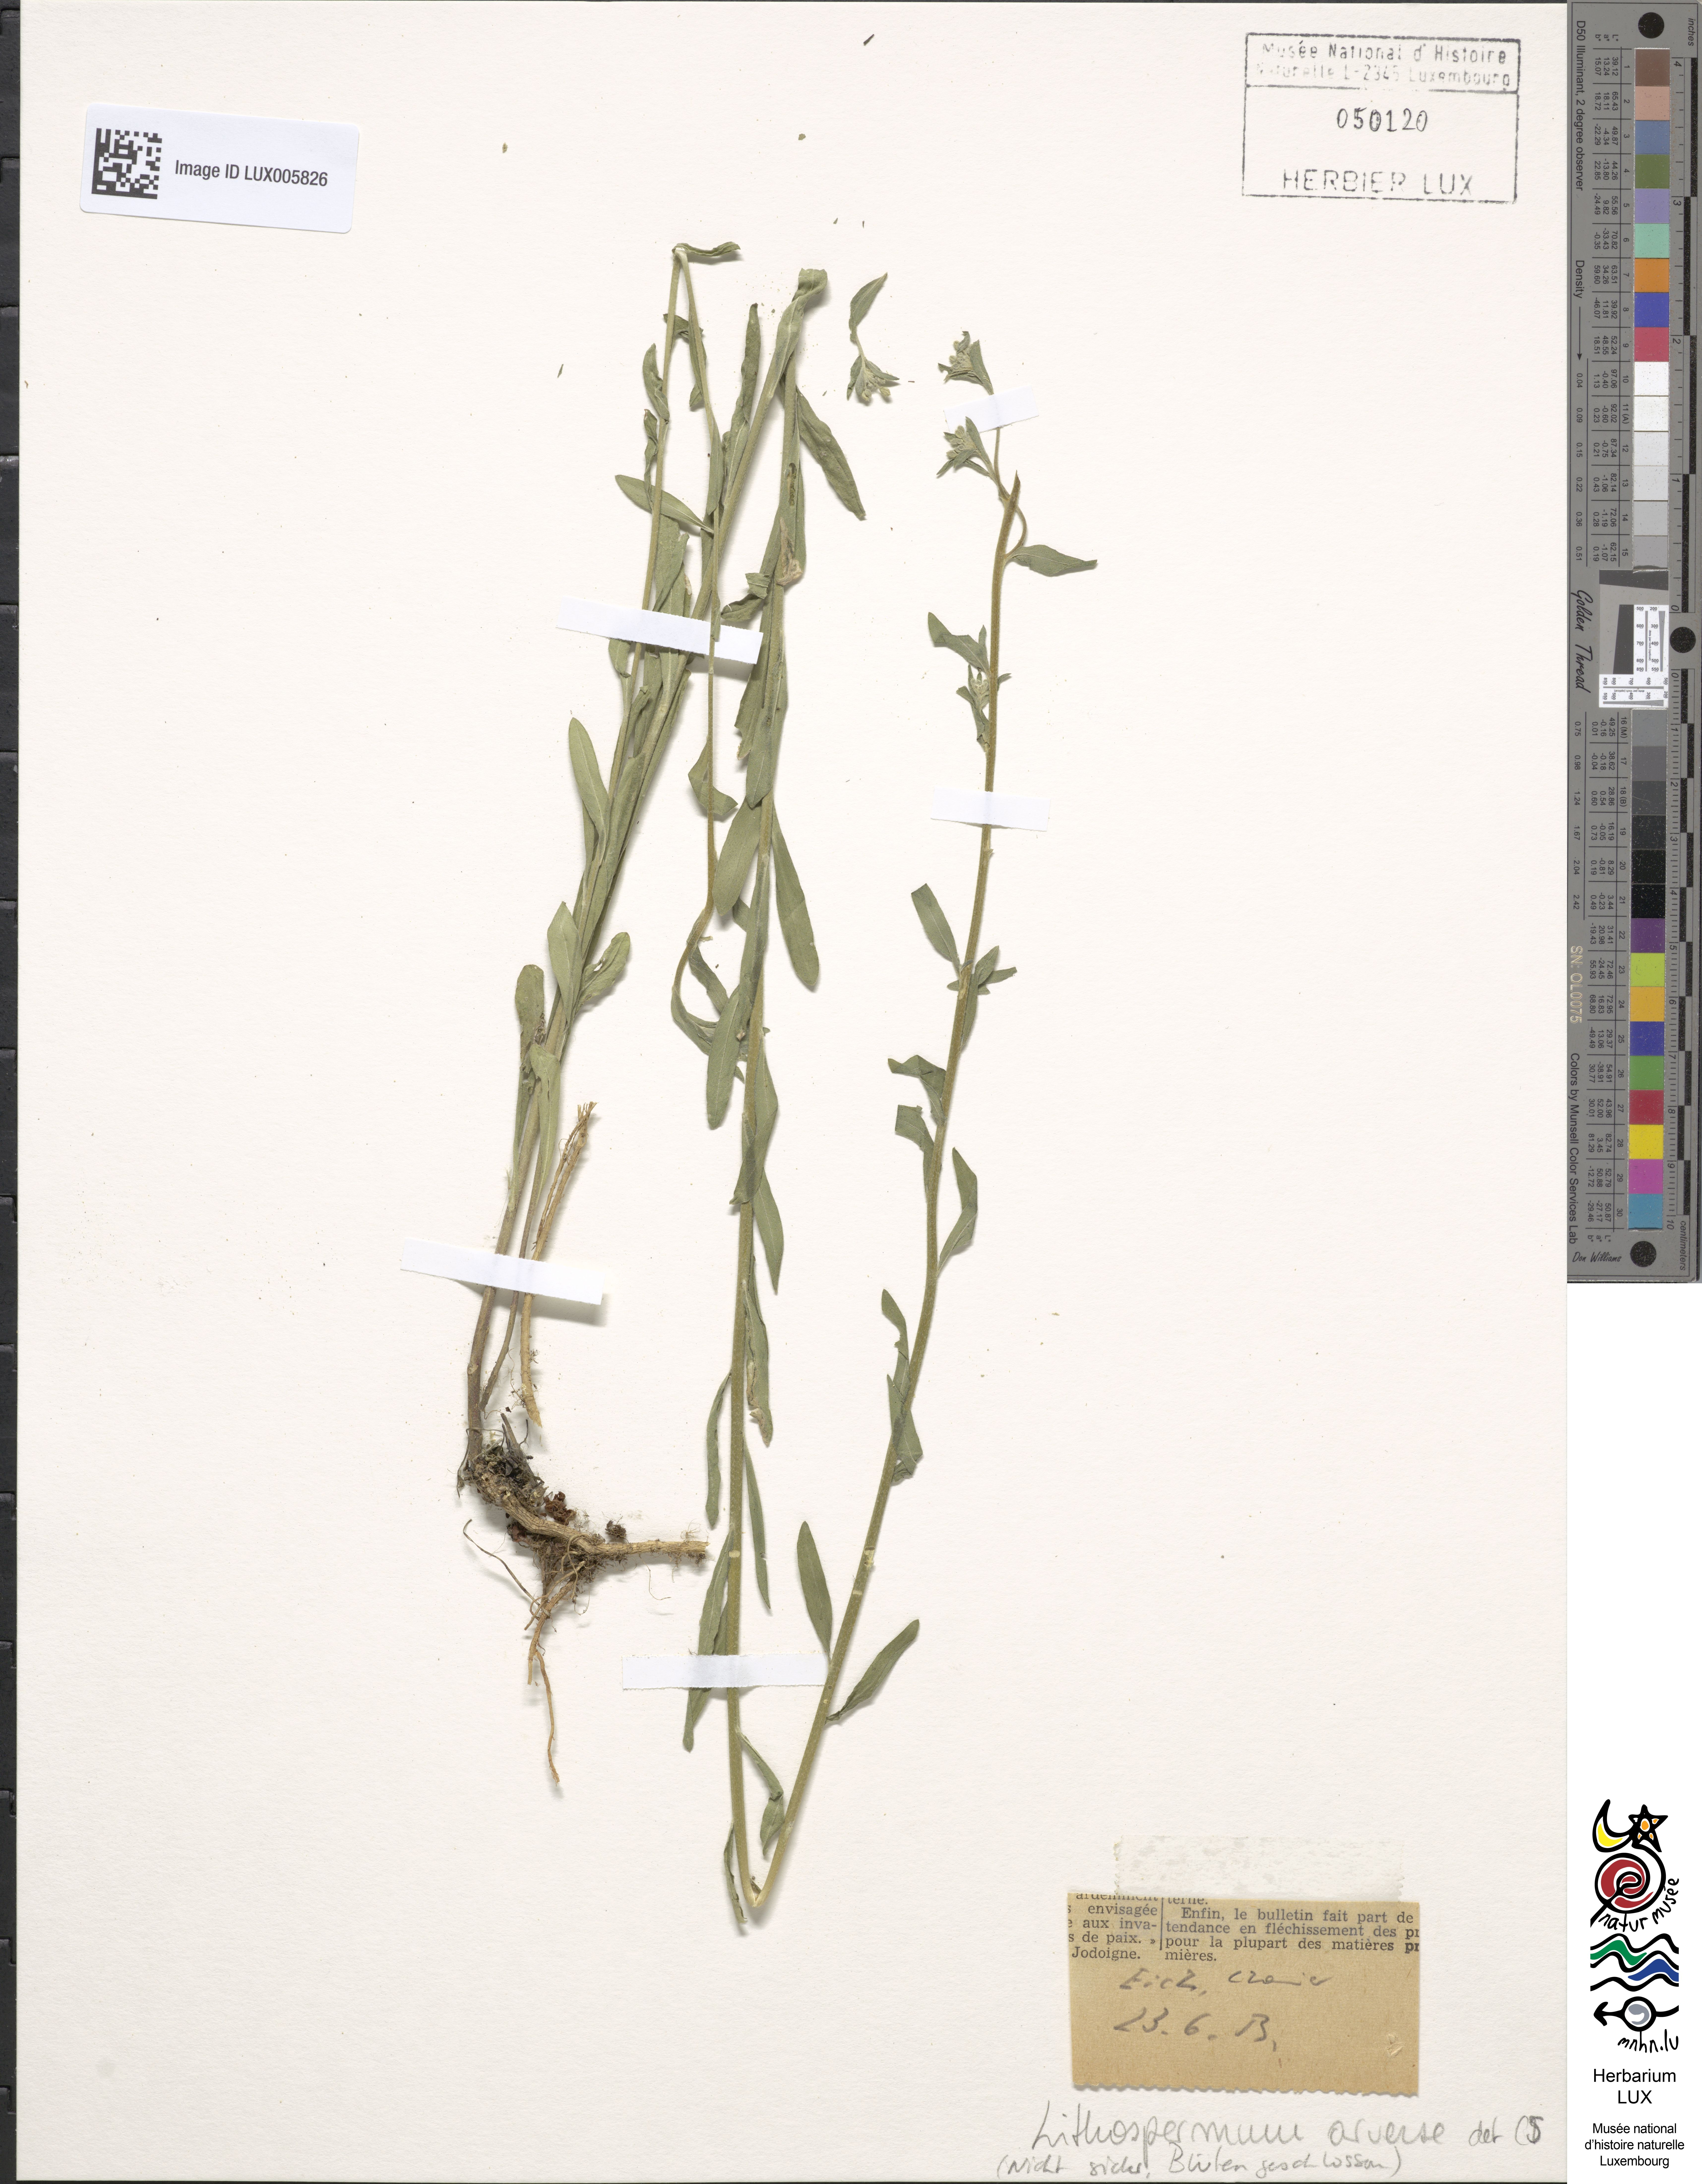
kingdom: Plantae
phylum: Tracheophyta
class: Magnoliopsida
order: Boraginales
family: Boraginaceae
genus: Buglossoides
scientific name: Buglossoides arvensis
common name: Corn gromwell
